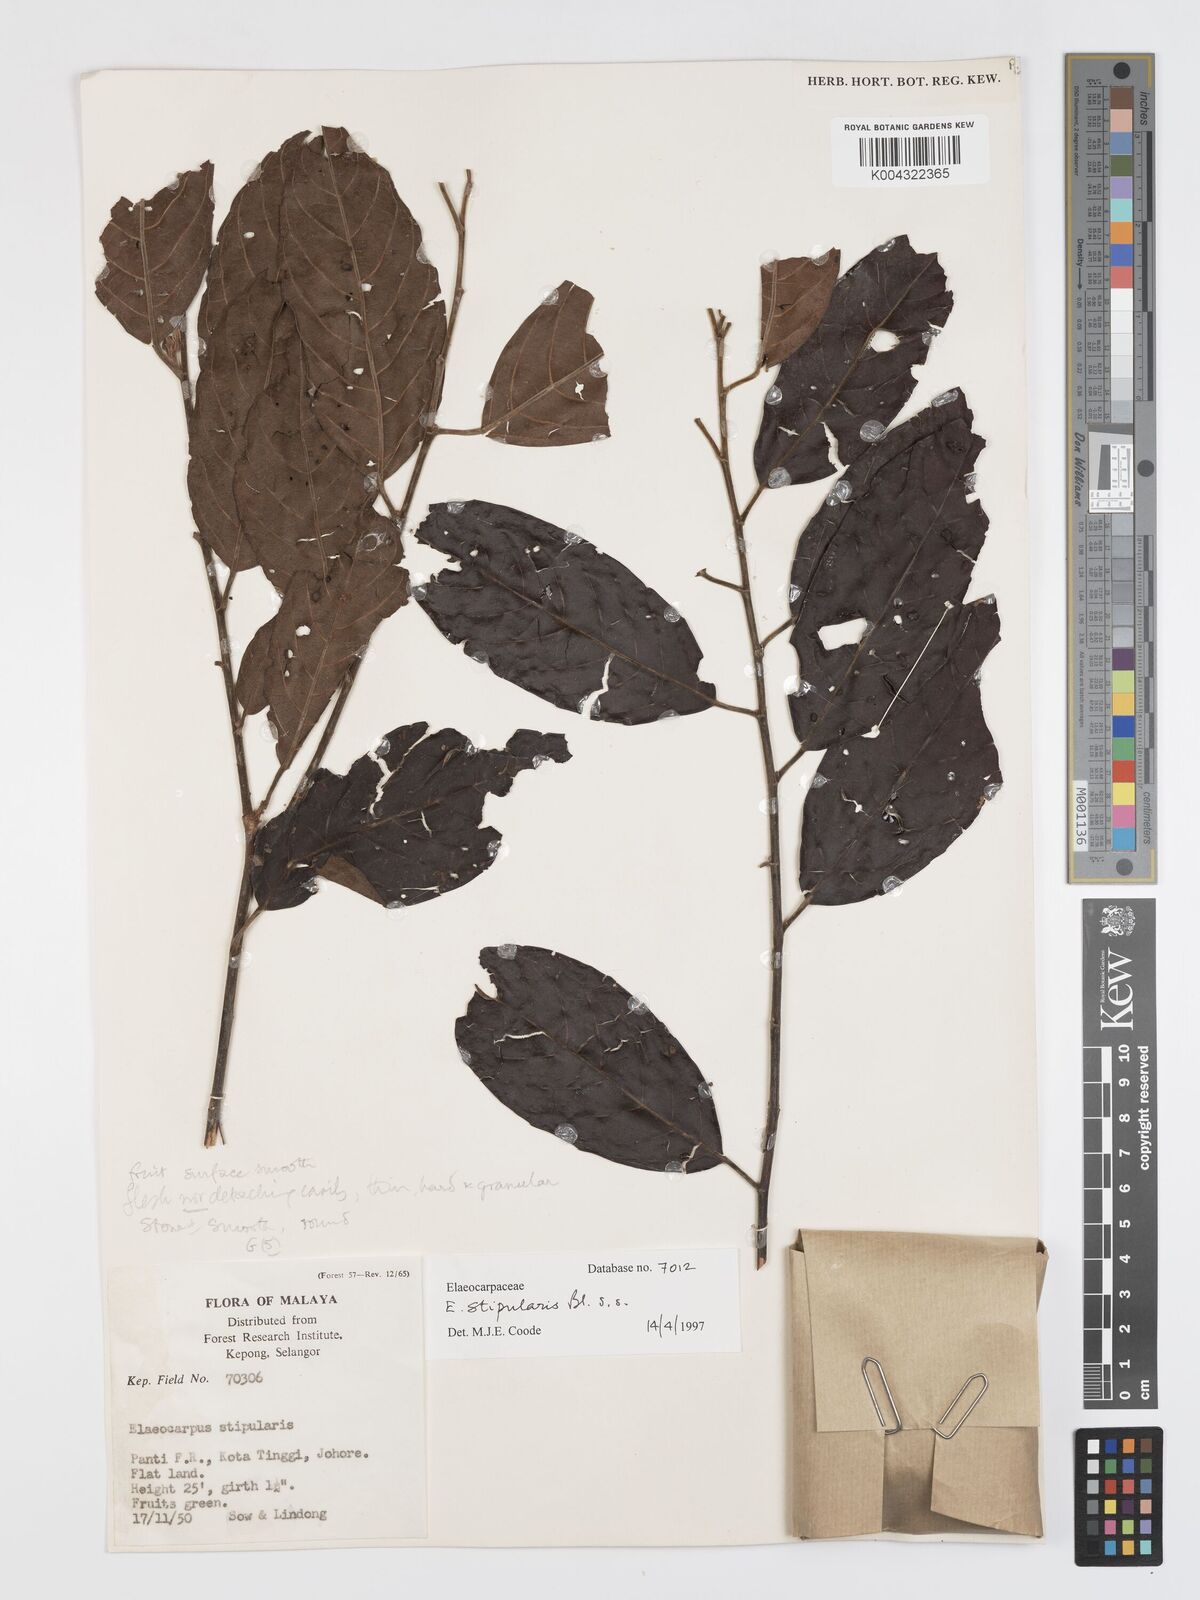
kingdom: Plantae
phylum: Tracheophyta
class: Magnoliopsida
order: Oxalidales
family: Elaeocarpaceae
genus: Elaeocarpus
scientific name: Elaeocarpus stipularis
